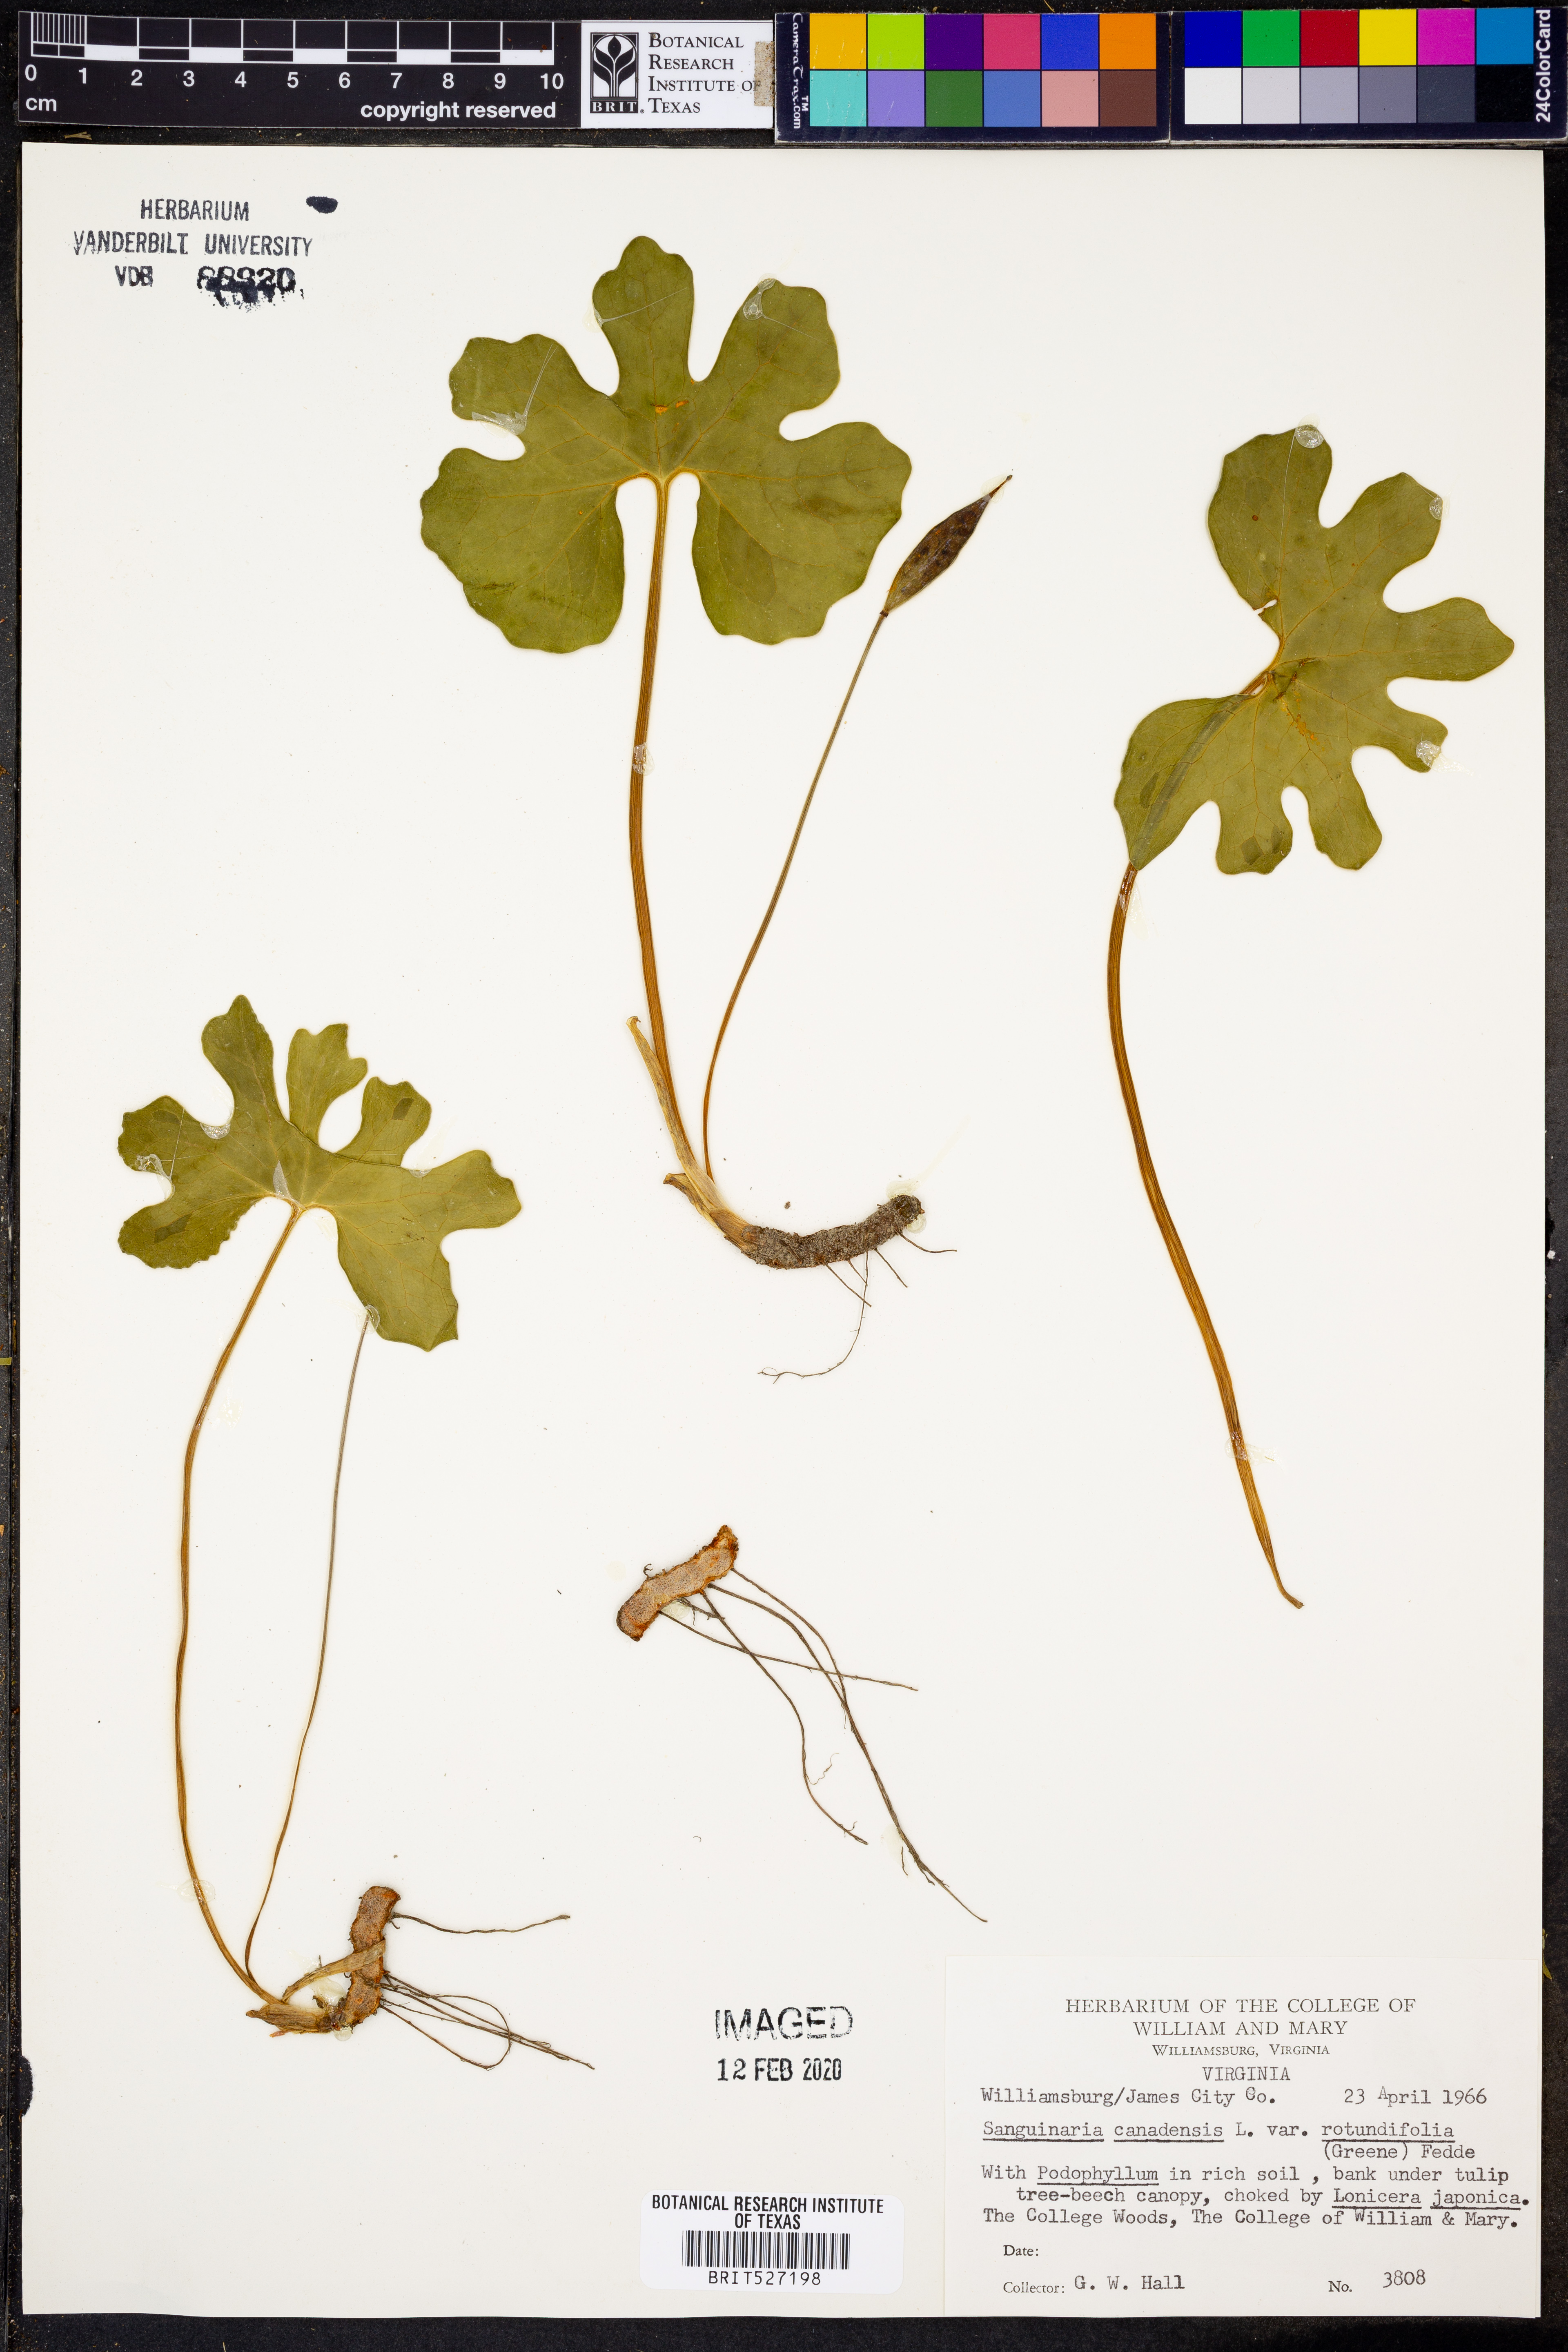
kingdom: Plantae
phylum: Tracheophyta
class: Magnoliopsida
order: Ranunculales
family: Papaveraceae
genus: Sanguinaria
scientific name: Sanguinaria canadensis
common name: Bloodroot
